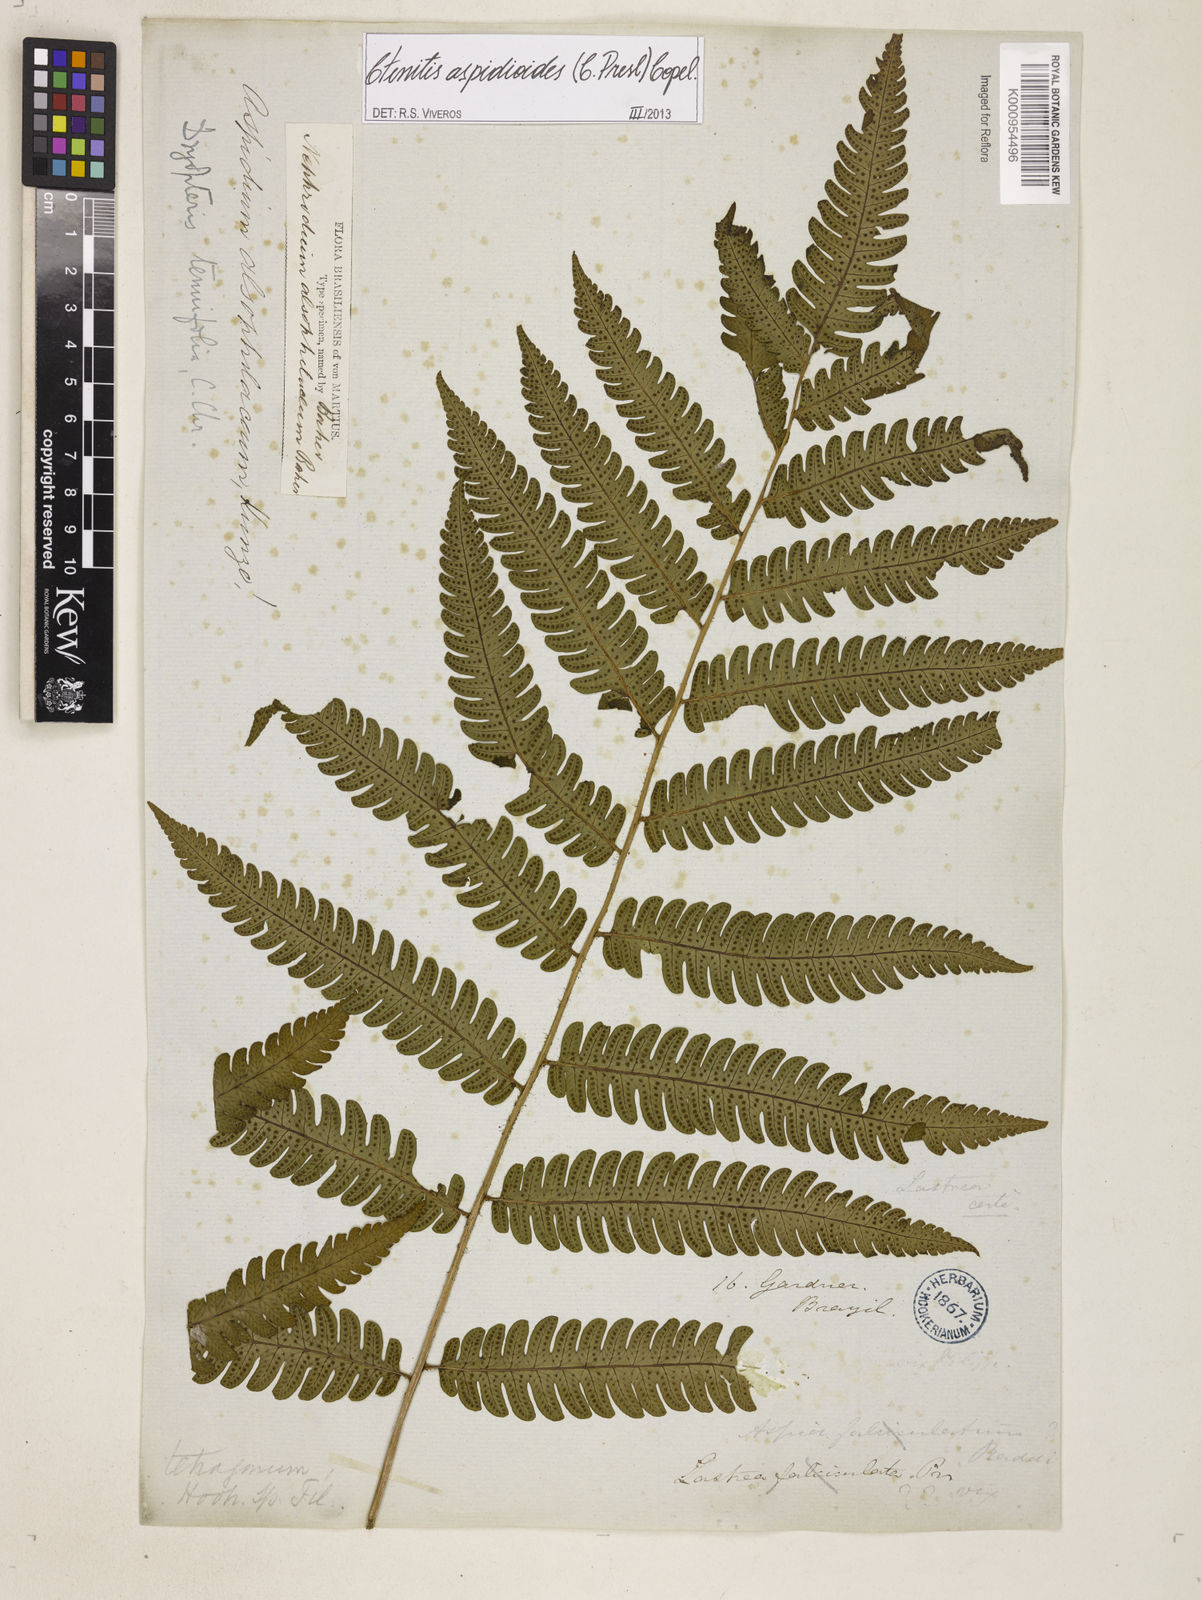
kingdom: Plantae
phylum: Tracheophyta
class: Polypodiopsida
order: Polypodiales
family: Dryopteridaceae
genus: Ctenitis
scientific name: Ctenitis aspidioides
